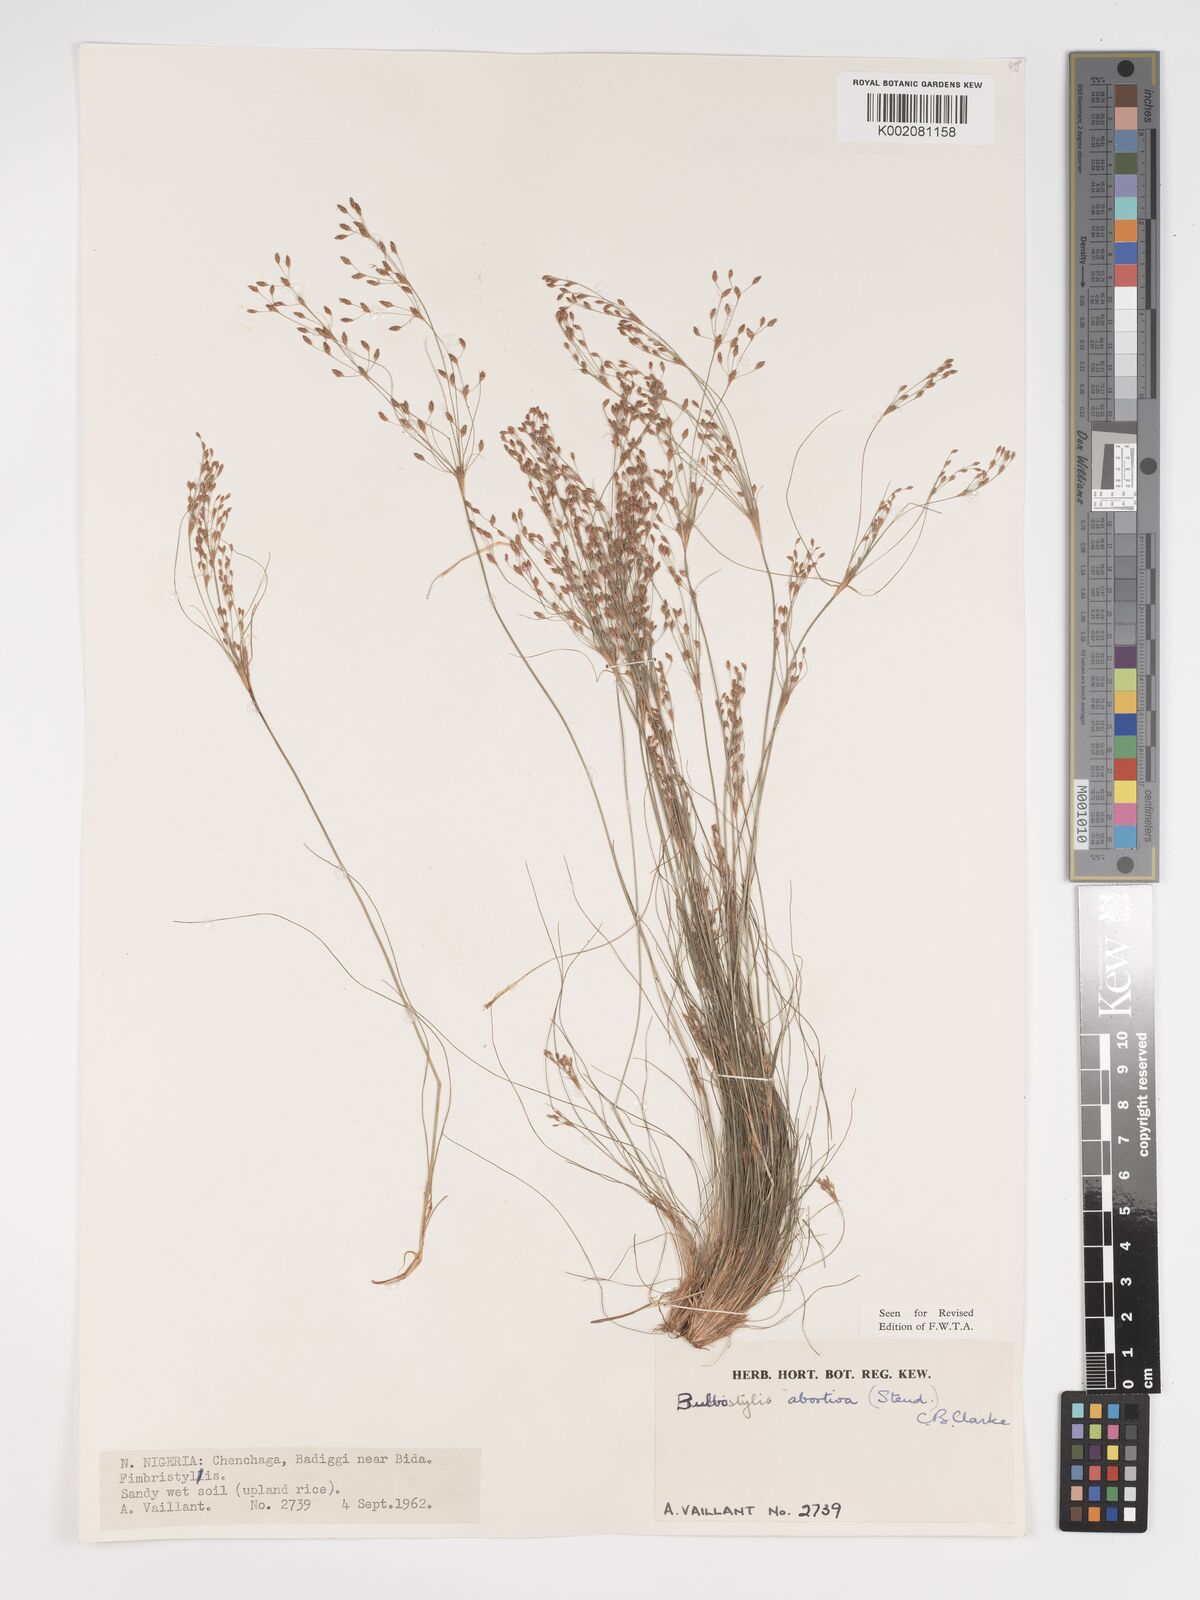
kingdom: Plantae
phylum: Tracheophyta
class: Liliopsida
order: Poales
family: Cyperaceae
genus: Bulbostylis
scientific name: Bulbostylis abortiva
